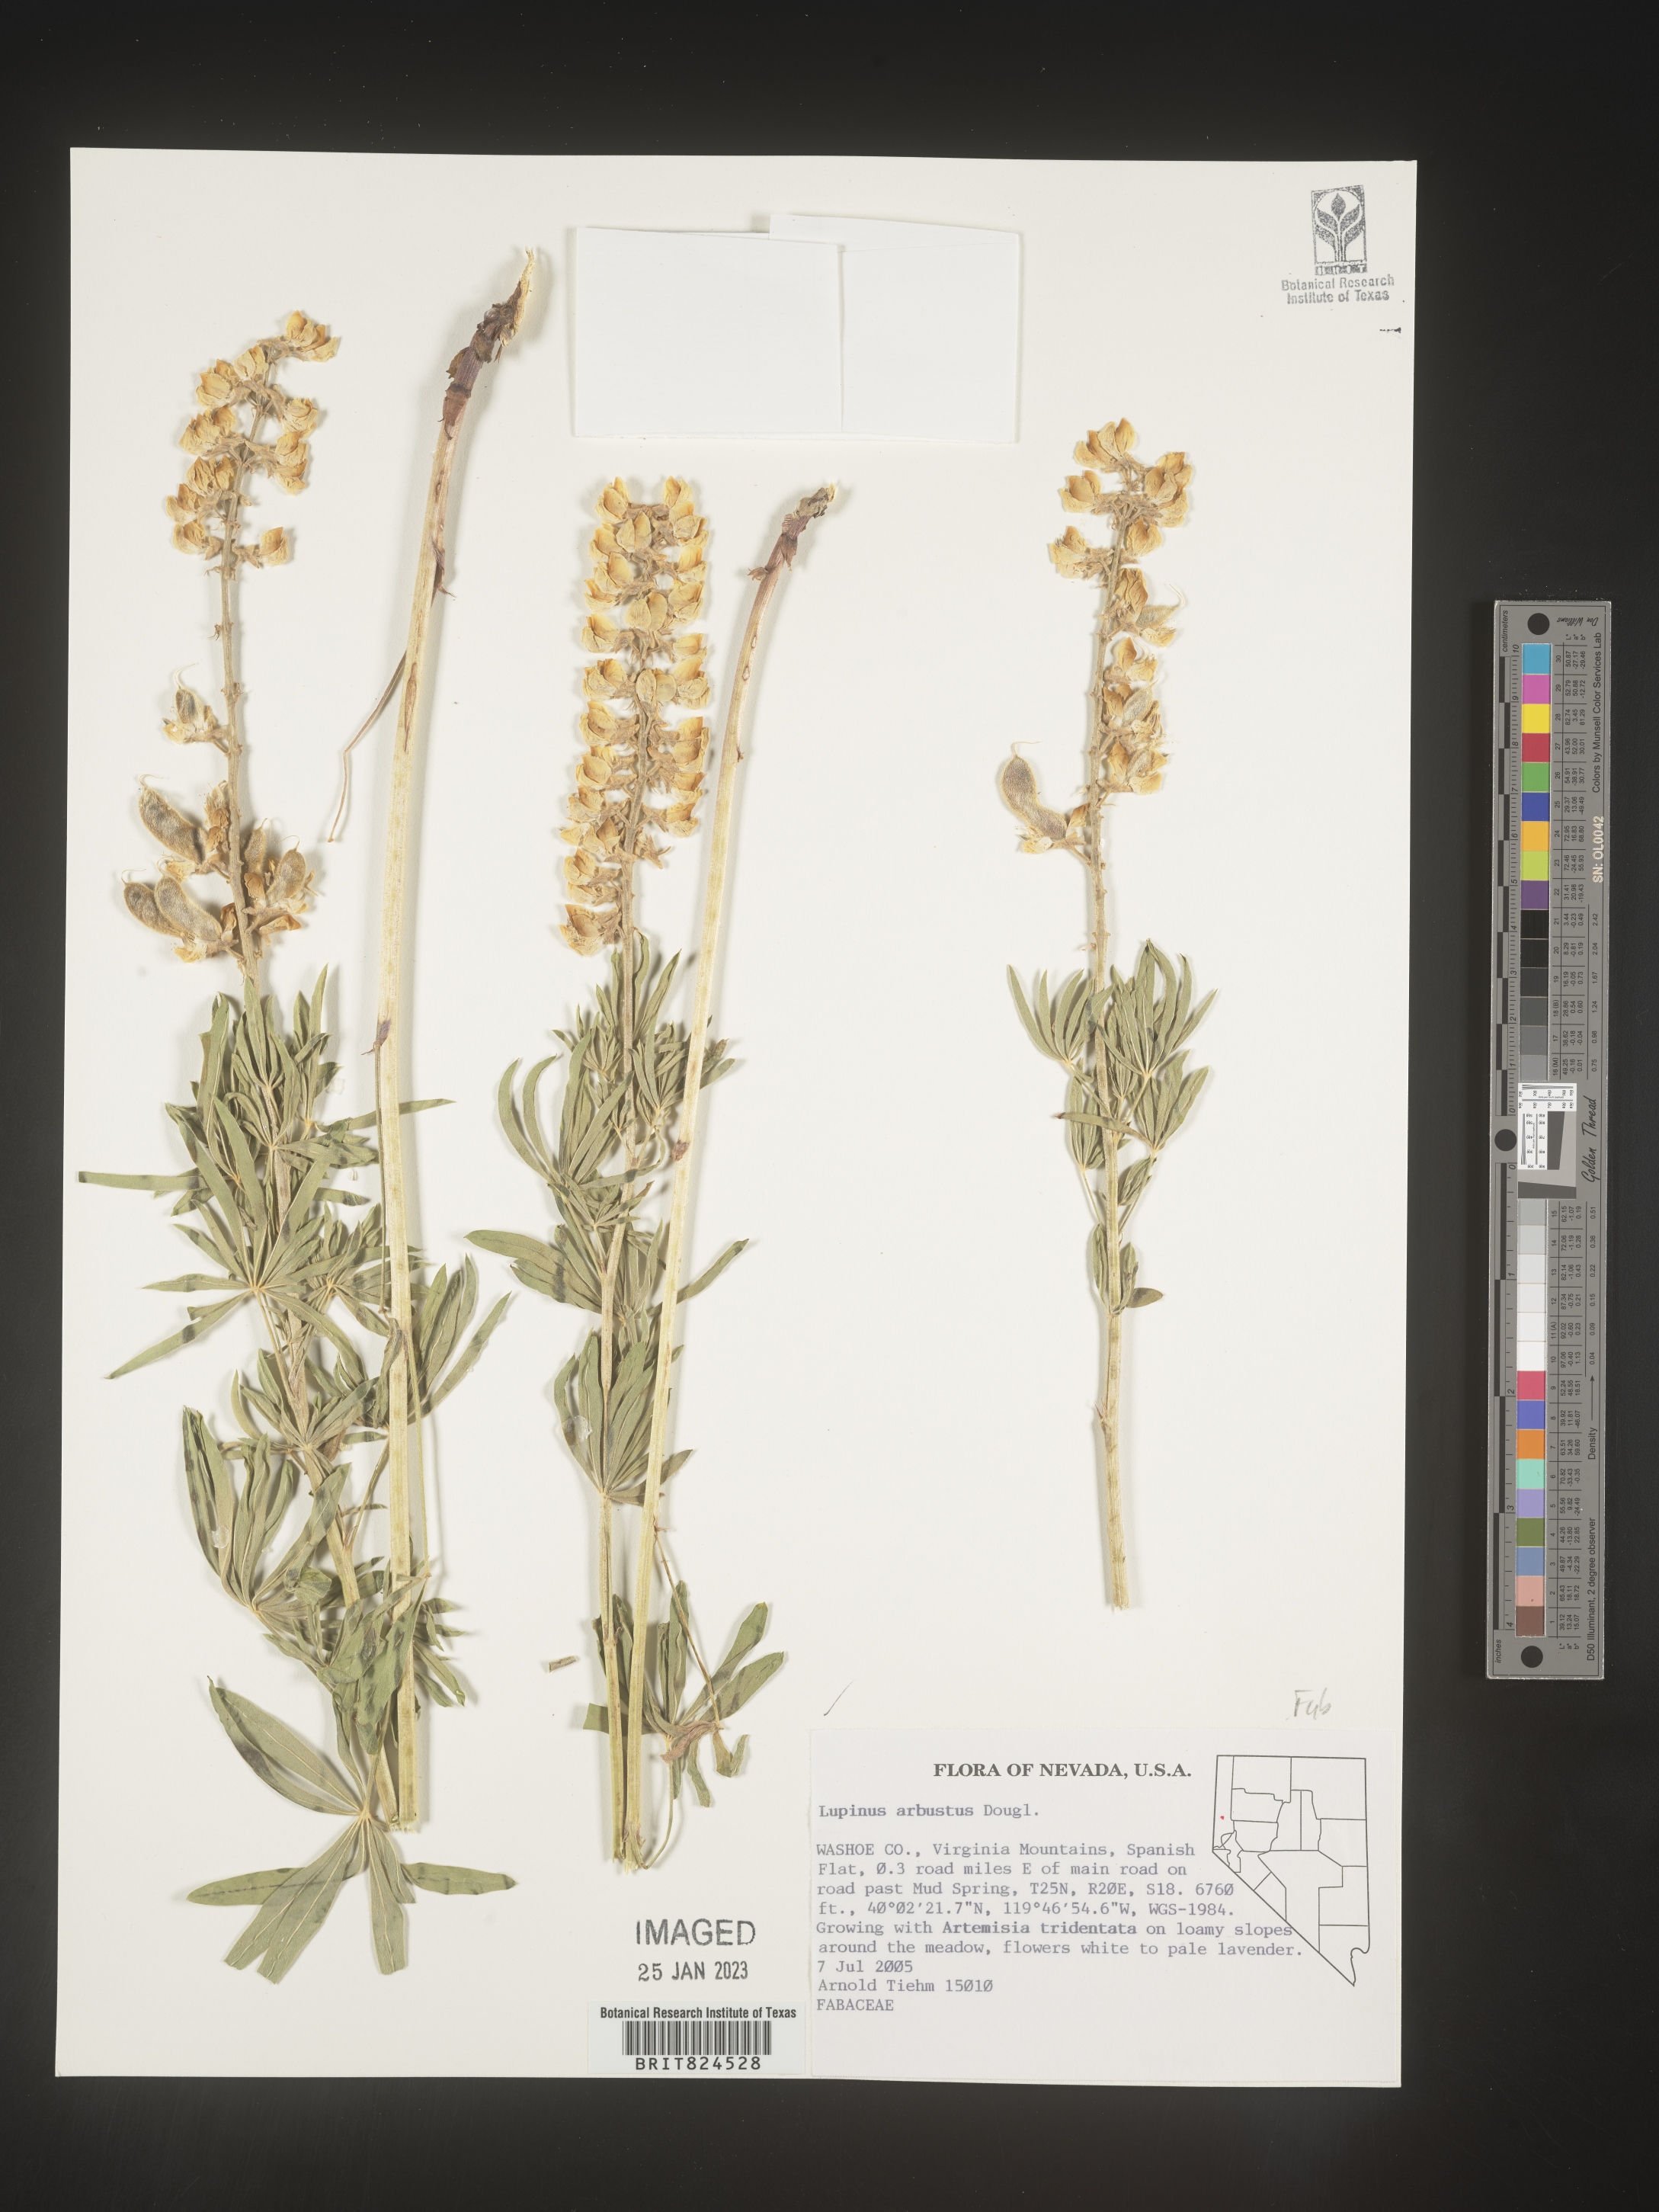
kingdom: Plantae
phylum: Tracheophyta
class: Magnoliopsida
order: Fabales
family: Fabaceae
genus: Lupinus
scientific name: Lupinus arbustus
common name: Montana lupine
